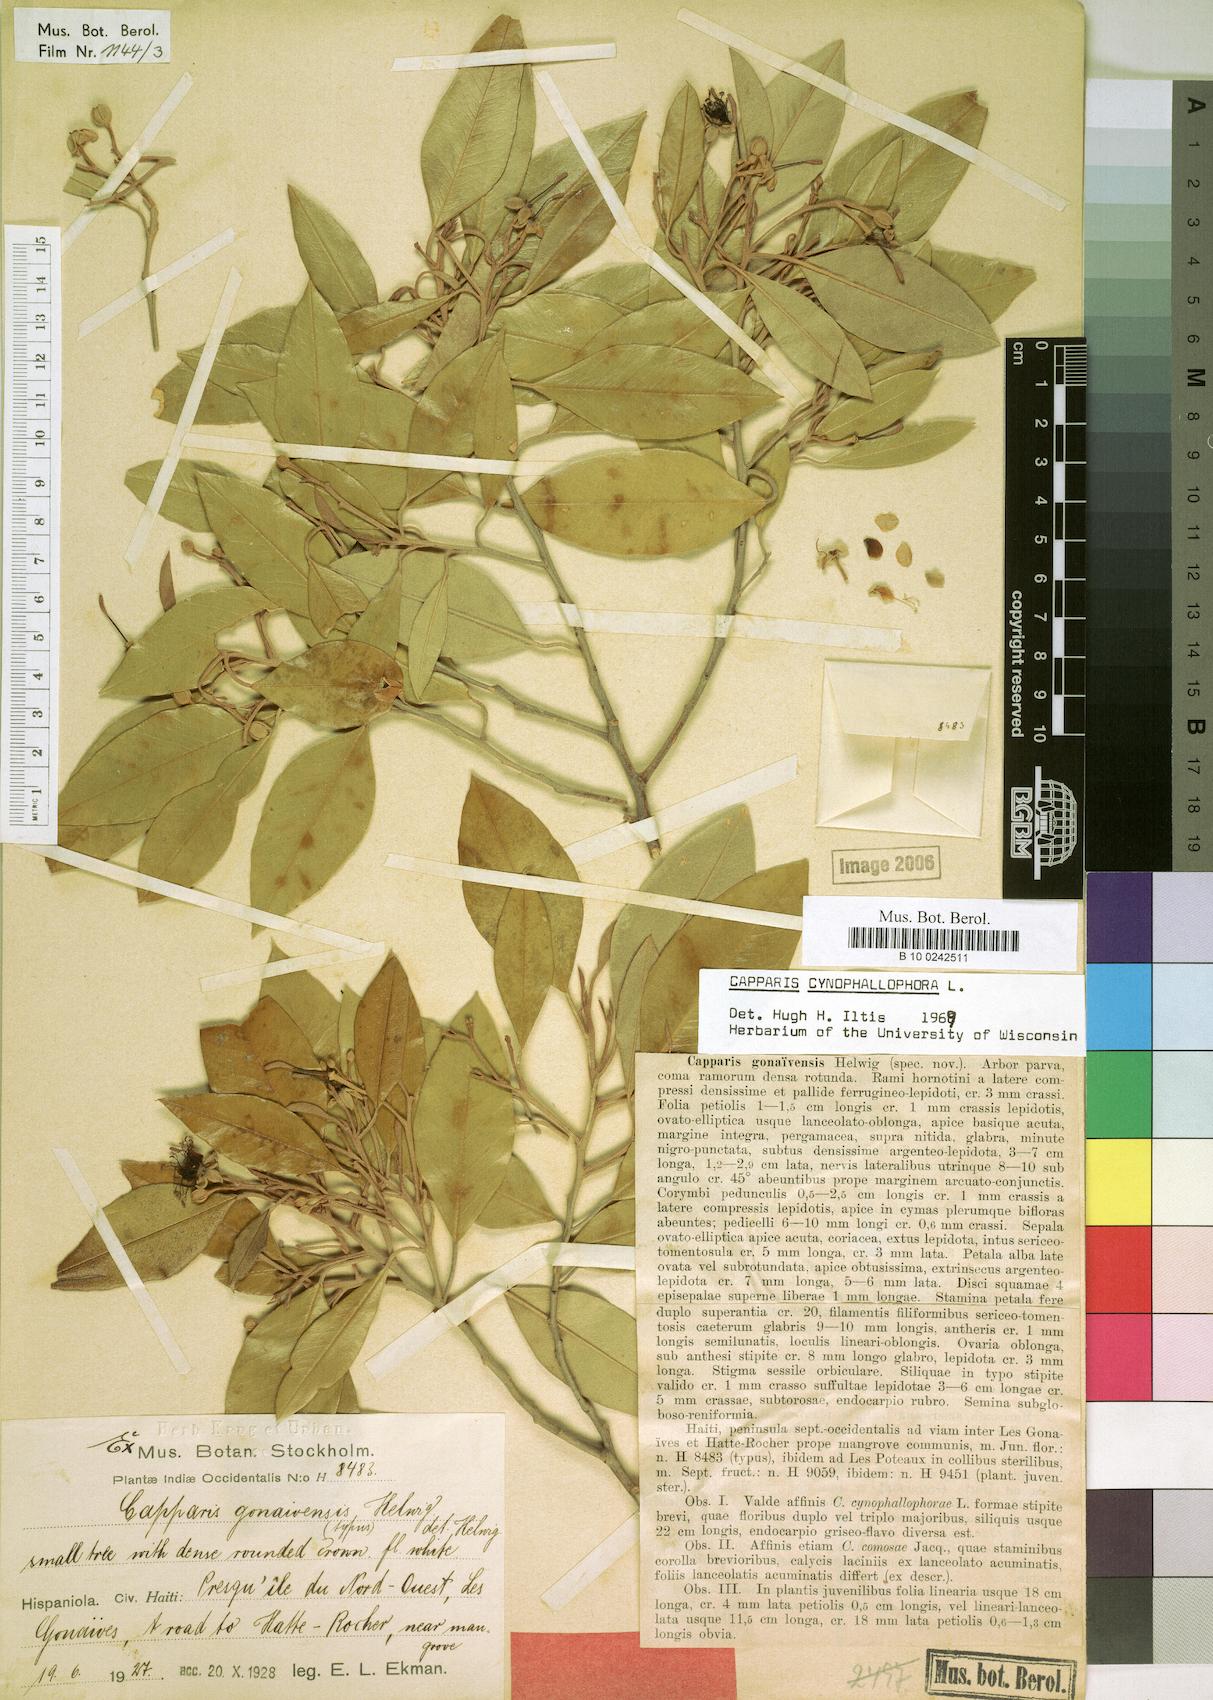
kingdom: Plantae
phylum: Tracheophyta
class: Magnoliopsida
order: Brassicales
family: Capparaceae
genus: Quadrella
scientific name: Quadrella cynophallophora
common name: Black willow
